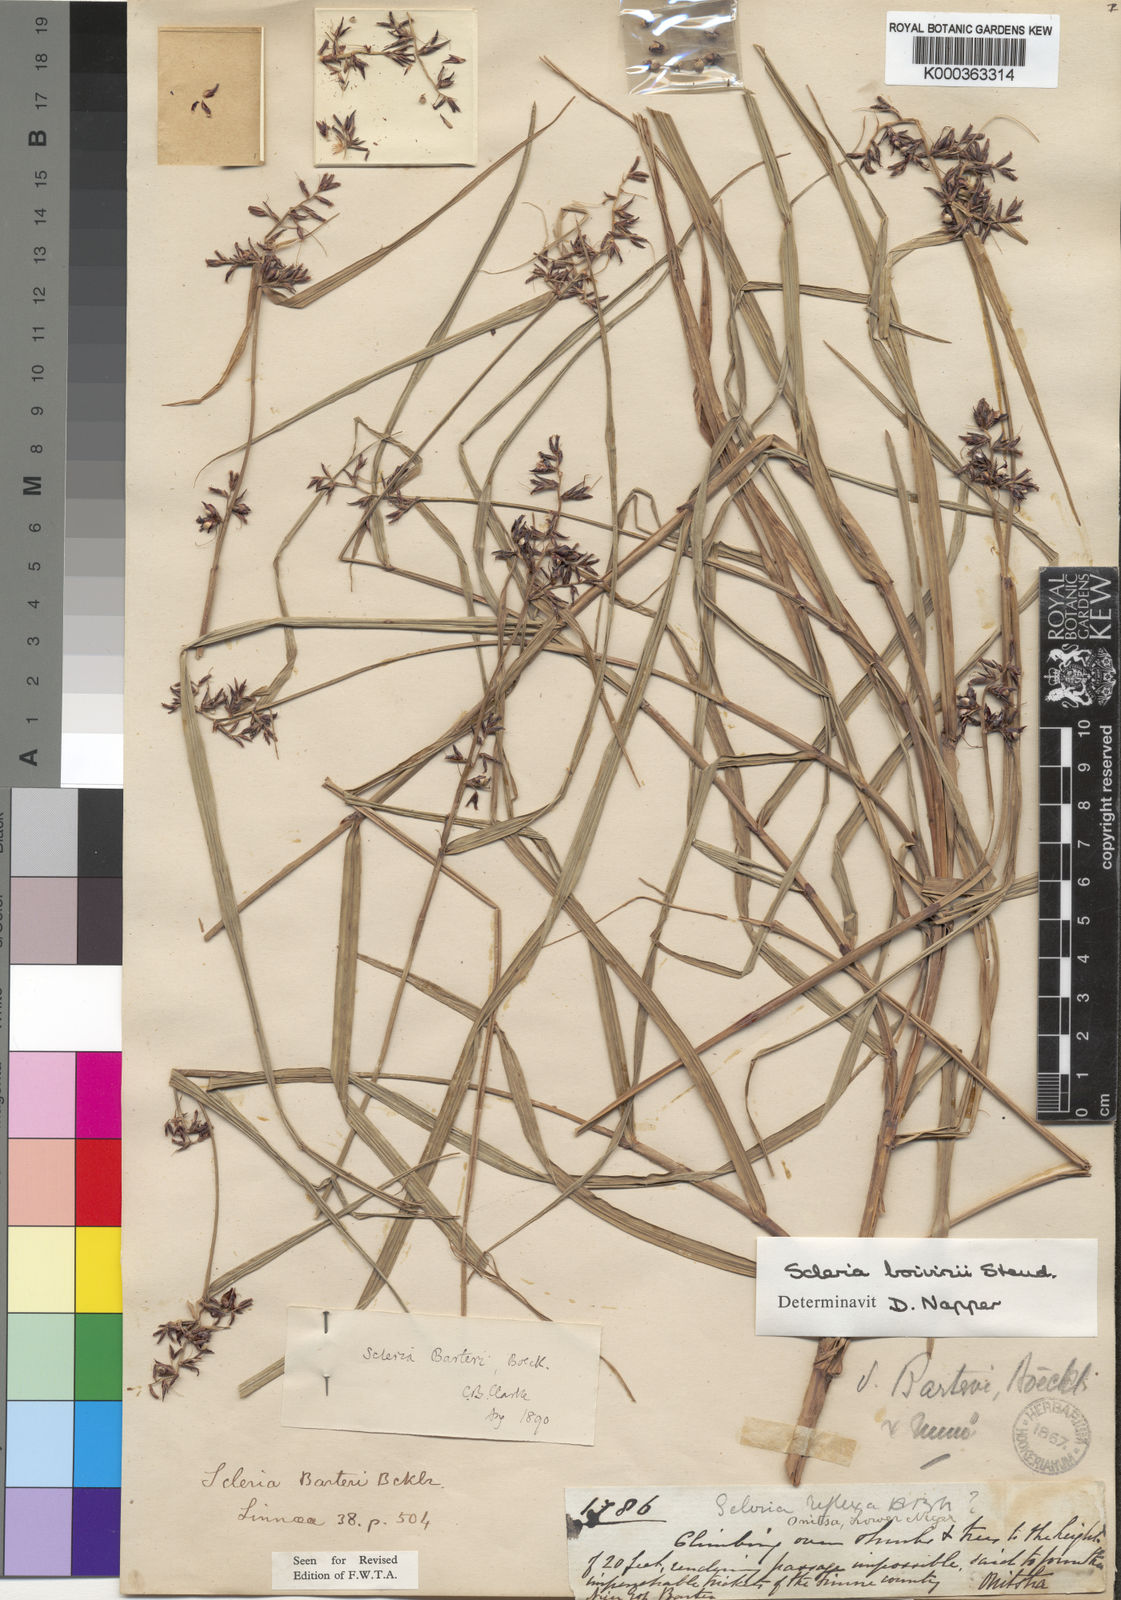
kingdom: Plantae
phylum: Tracheophyta
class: Liliopsida
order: Poales
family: Cyperaceae
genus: Scleria
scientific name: Scleria boivinii
